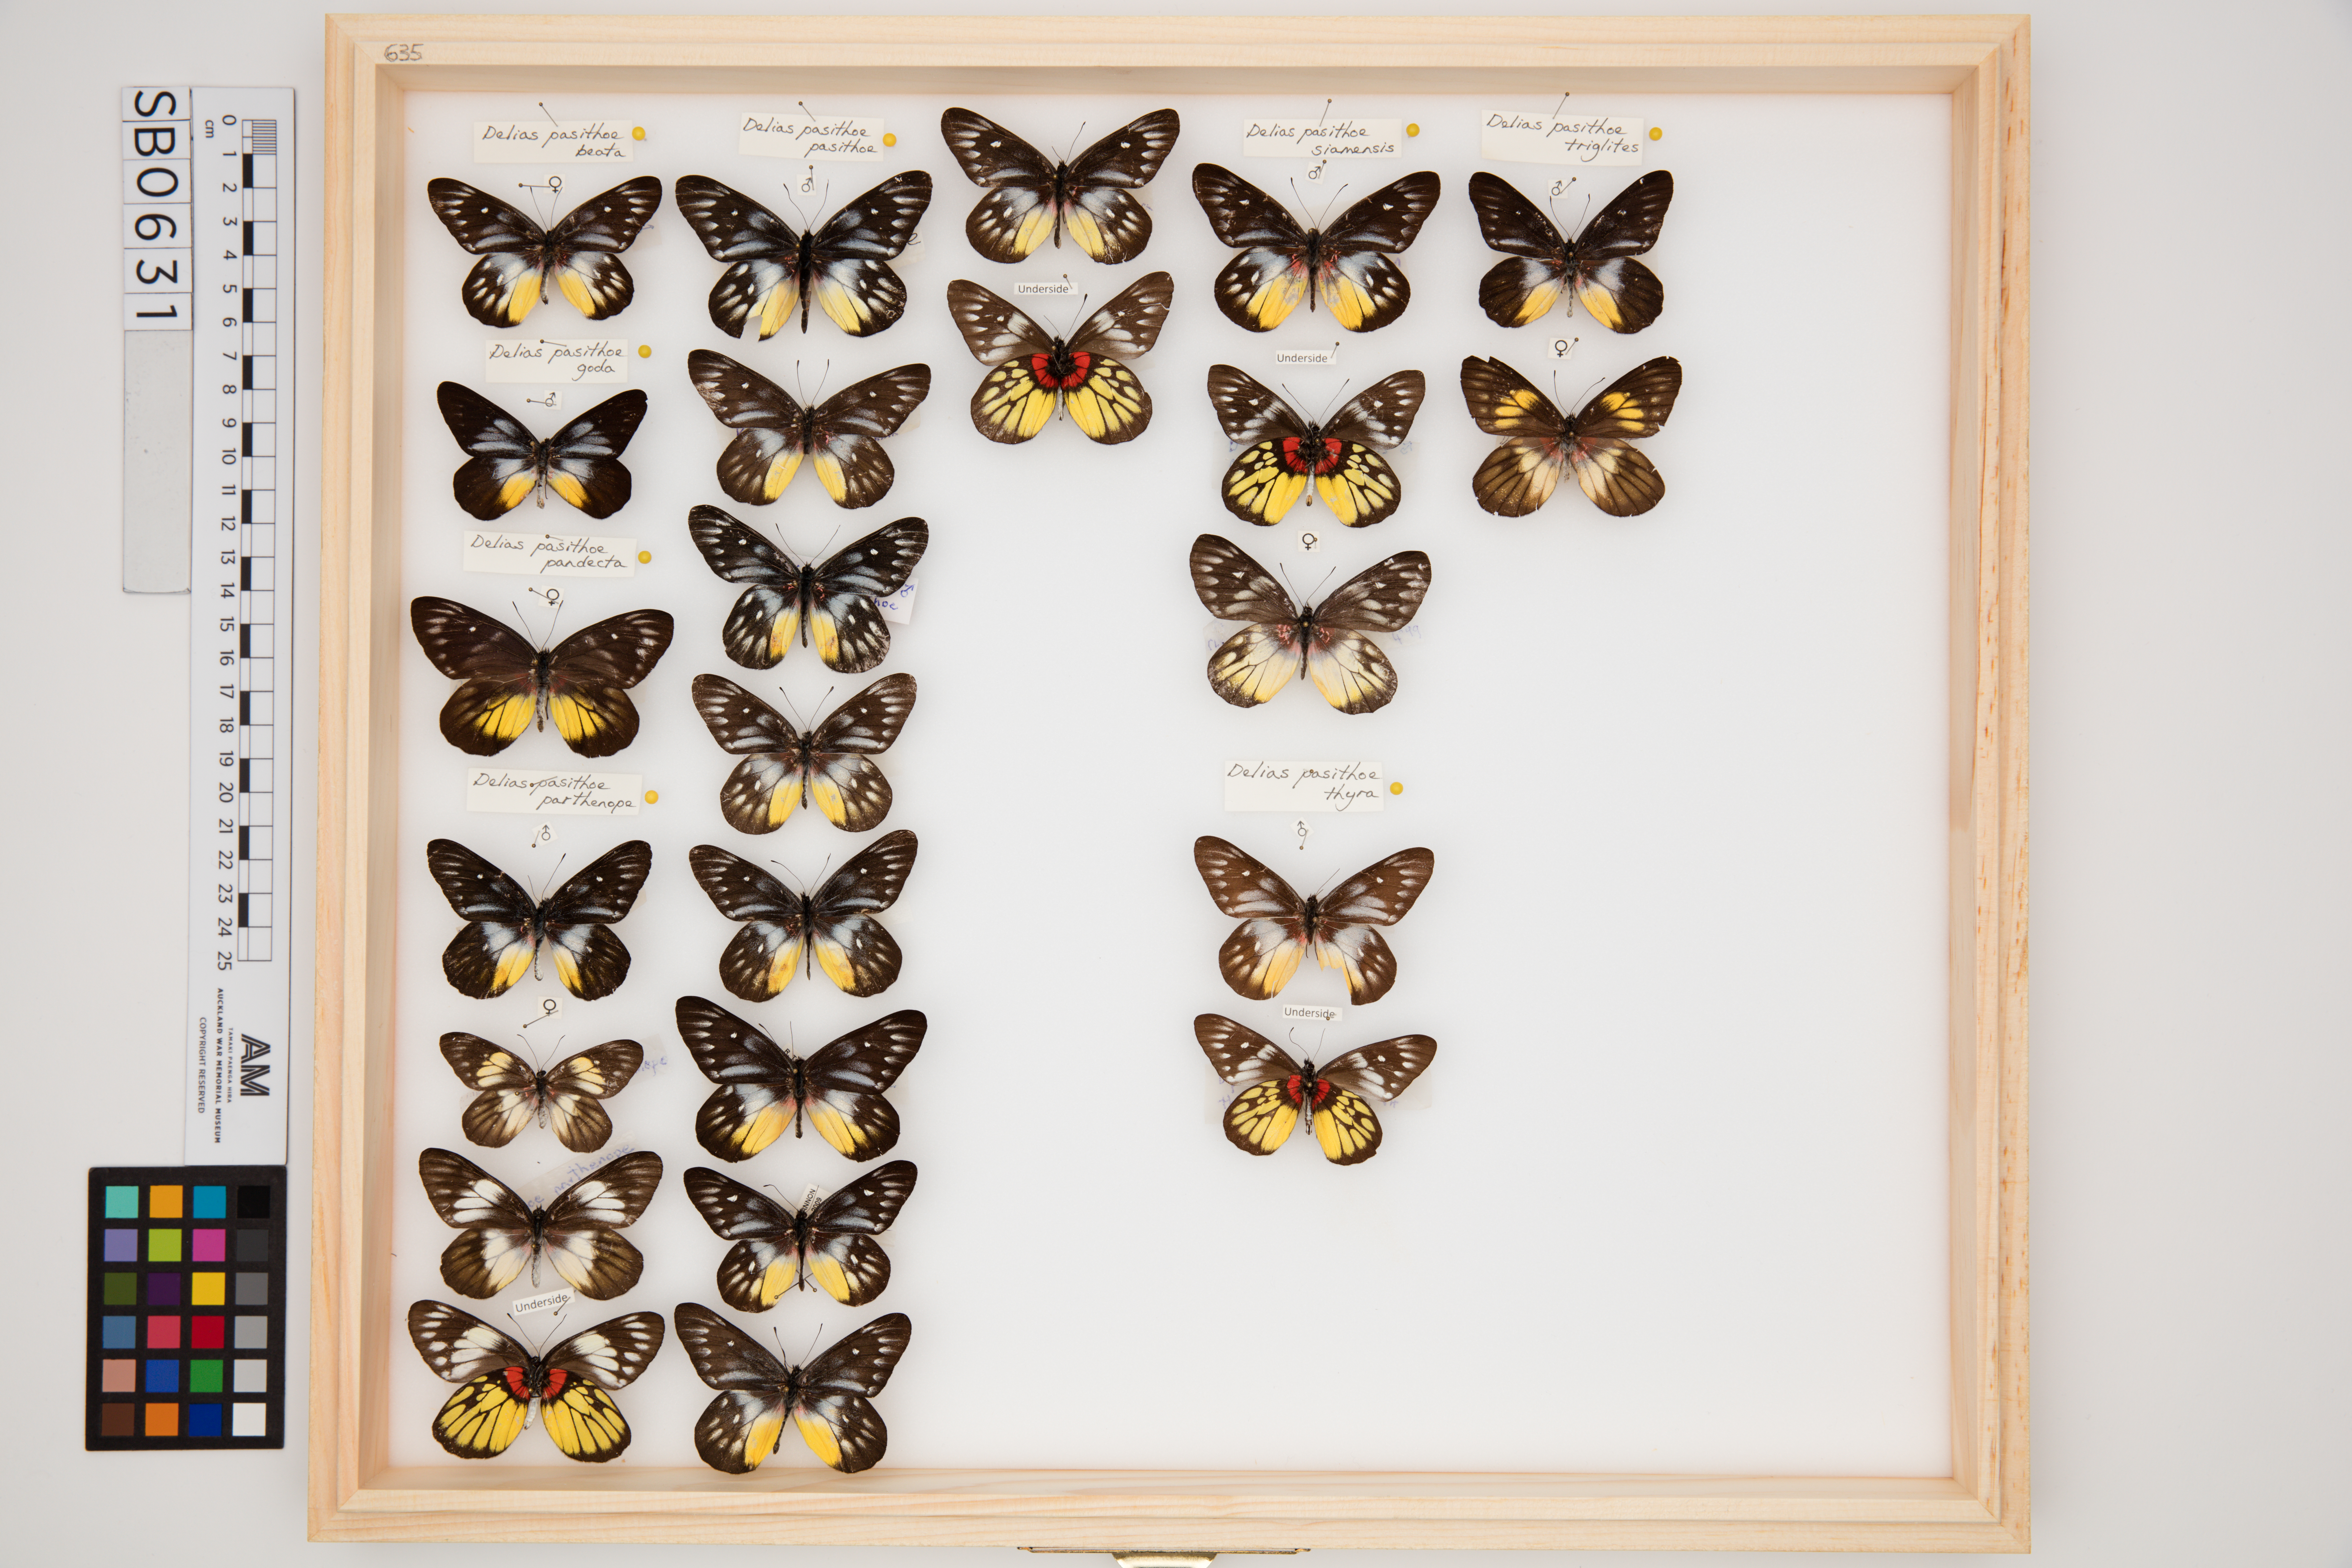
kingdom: Animalia
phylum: Arthropoda
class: Insecta
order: Lepidoptera
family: Pieridae
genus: Delias
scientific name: Delias pasithoe
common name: Red-base jezebel
